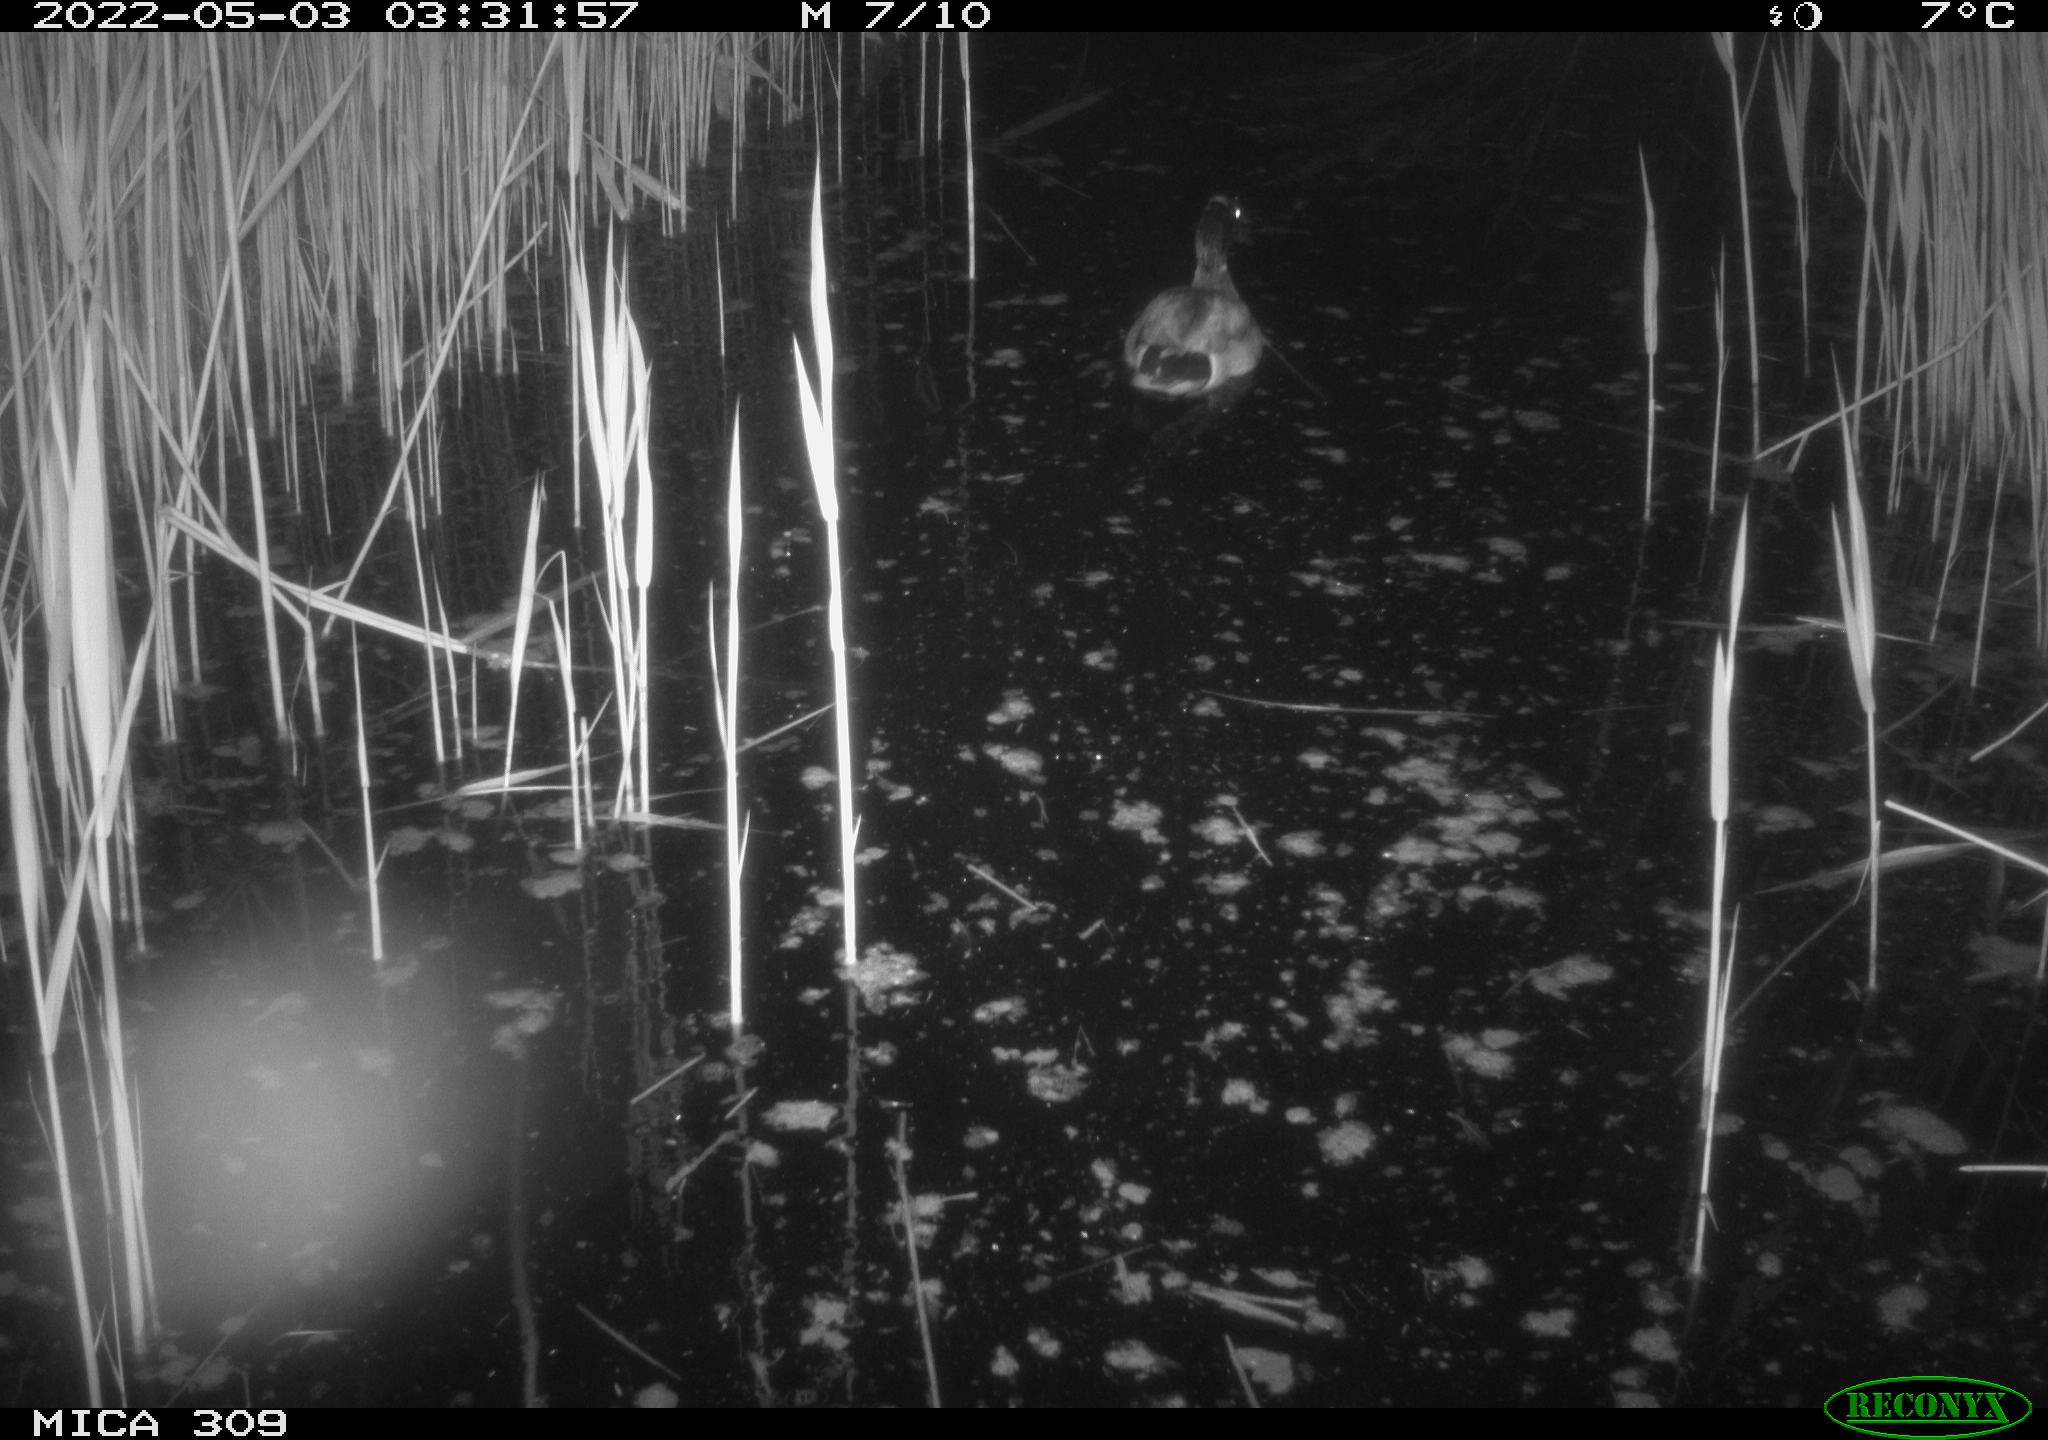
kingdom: Animalia
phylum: Chordata
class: Aves
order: Anseriformes
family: Anatidae
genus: Anas
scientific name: Anas platyrhynchos
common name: Mallard
